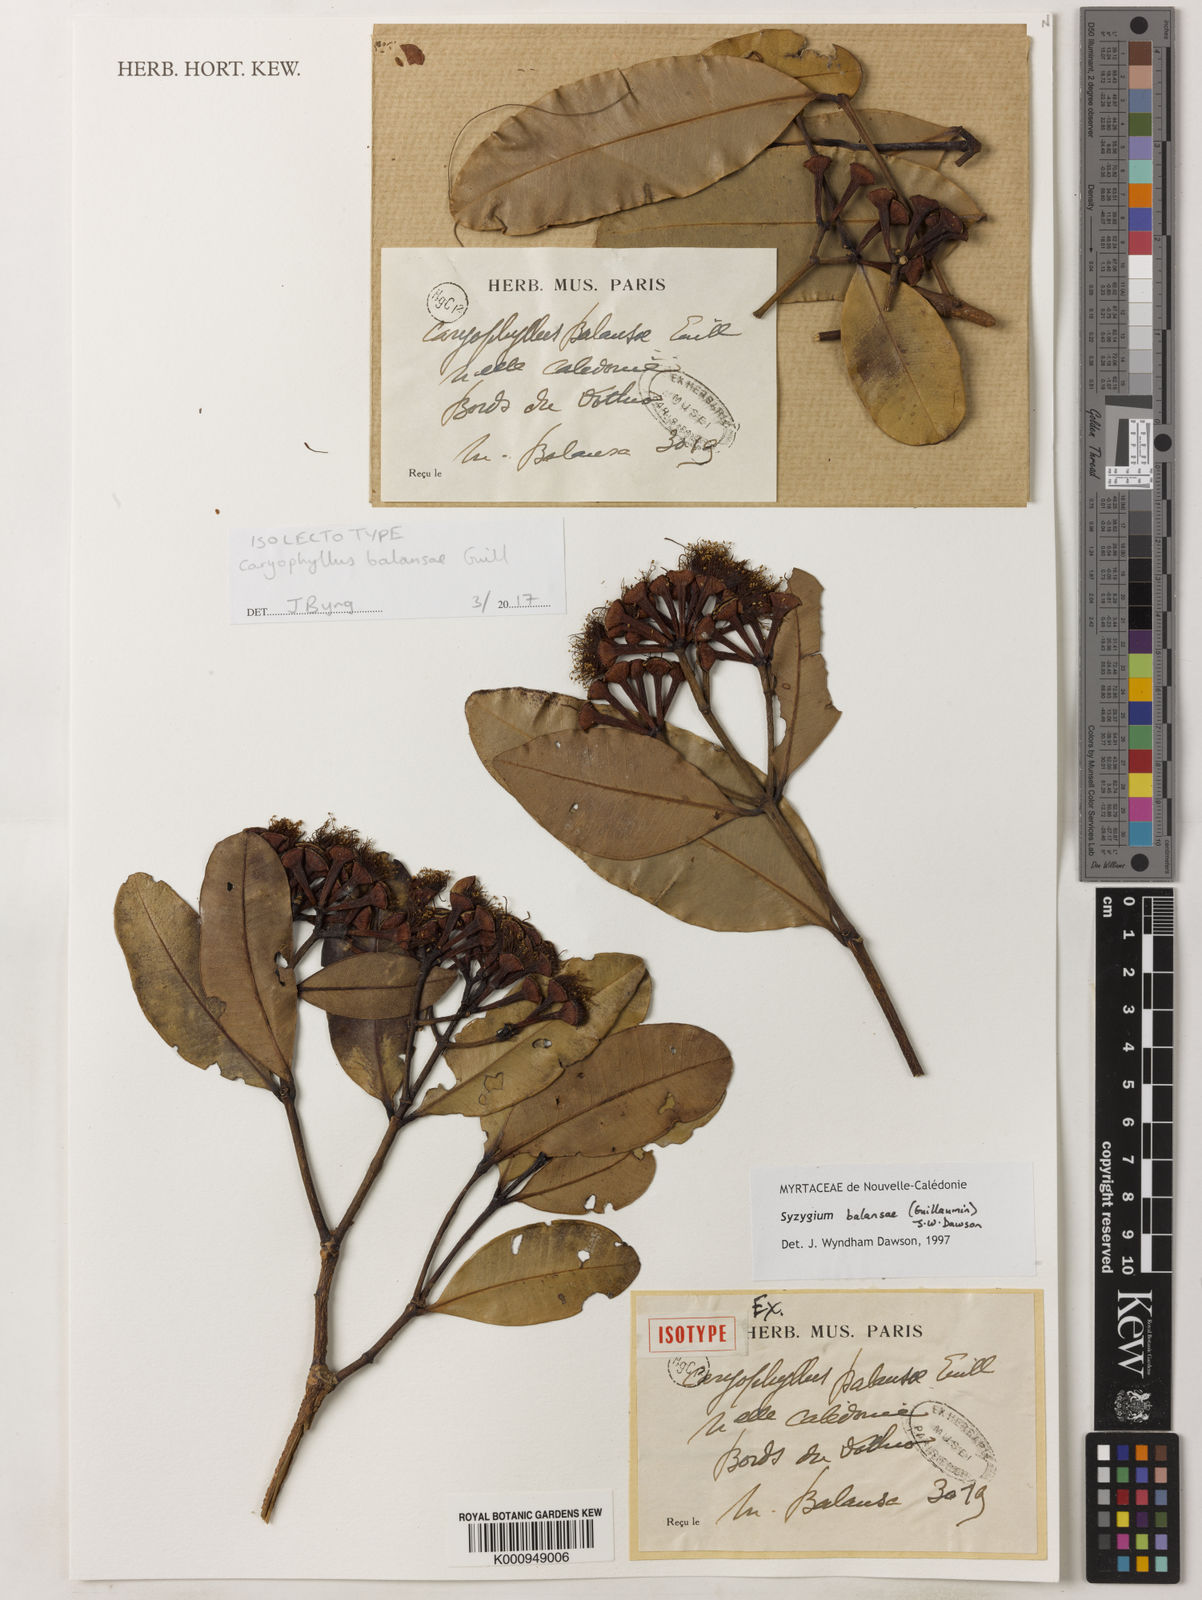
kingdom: Plantae
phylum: Tracheophyta
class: Magnoliopsida
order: Myrtales
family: Myrtaceae
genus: Syzygium
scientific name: Syzygium balansae
